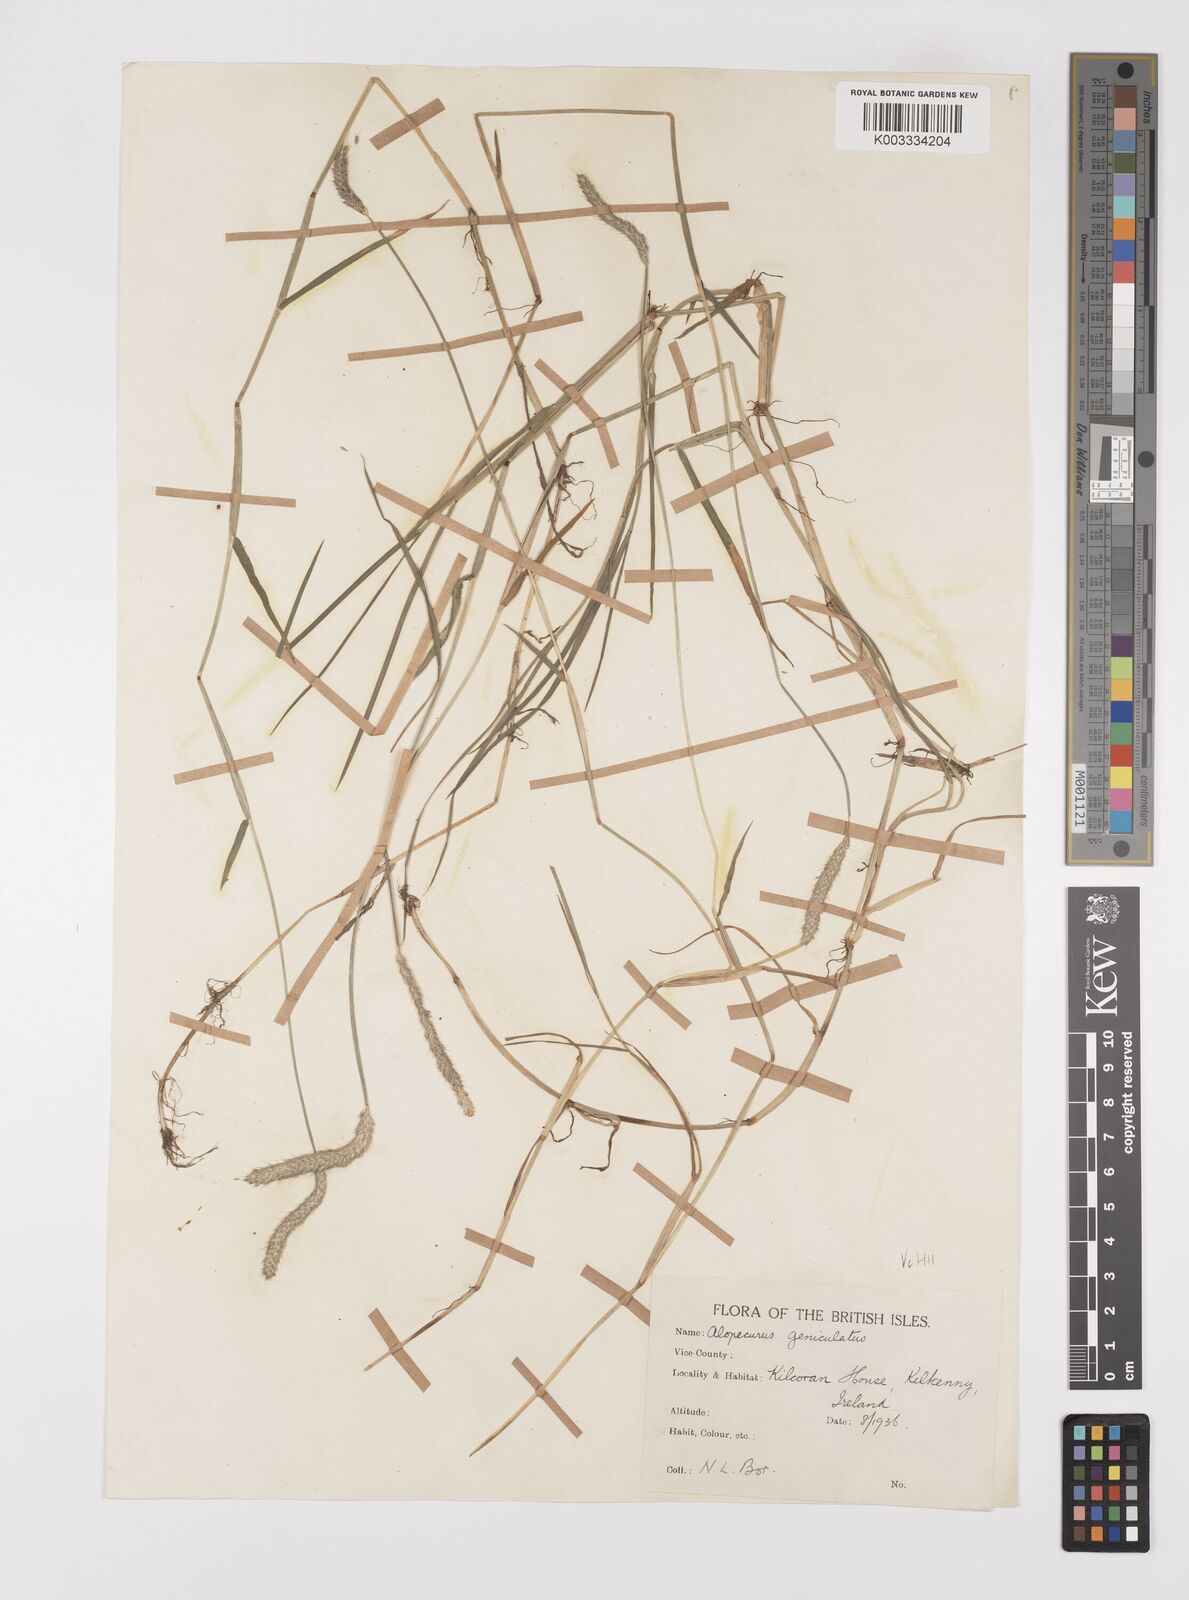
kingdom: Plantae
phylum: Tracheophyta
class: Liliopsida
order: Poales
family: Poaceae
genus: Alopecurus
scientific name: Alopecurus geniculatus
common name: Water foxtail
